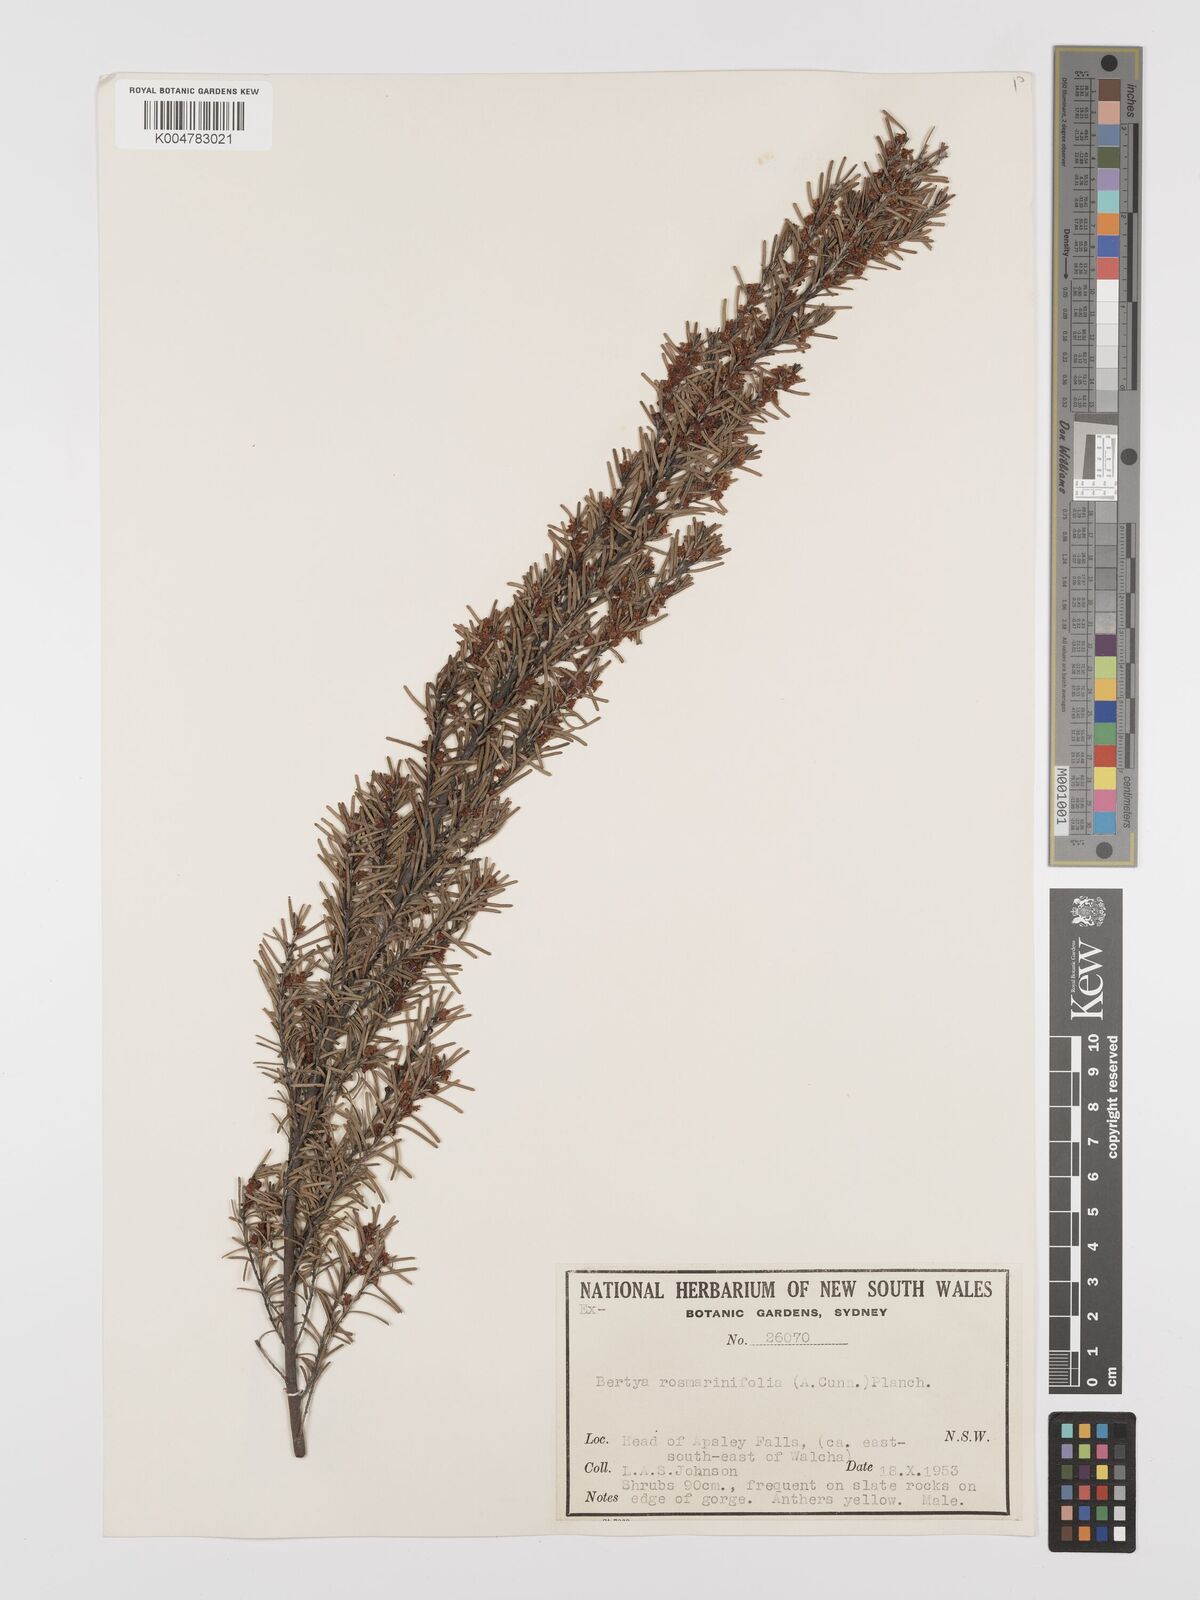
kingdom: Plantae
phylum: Tracheophyta
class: Magnoliopsida
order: Malpighiales
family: Euphorbiaceae
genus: Bertya
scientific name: Bertya rosmarinifolia
